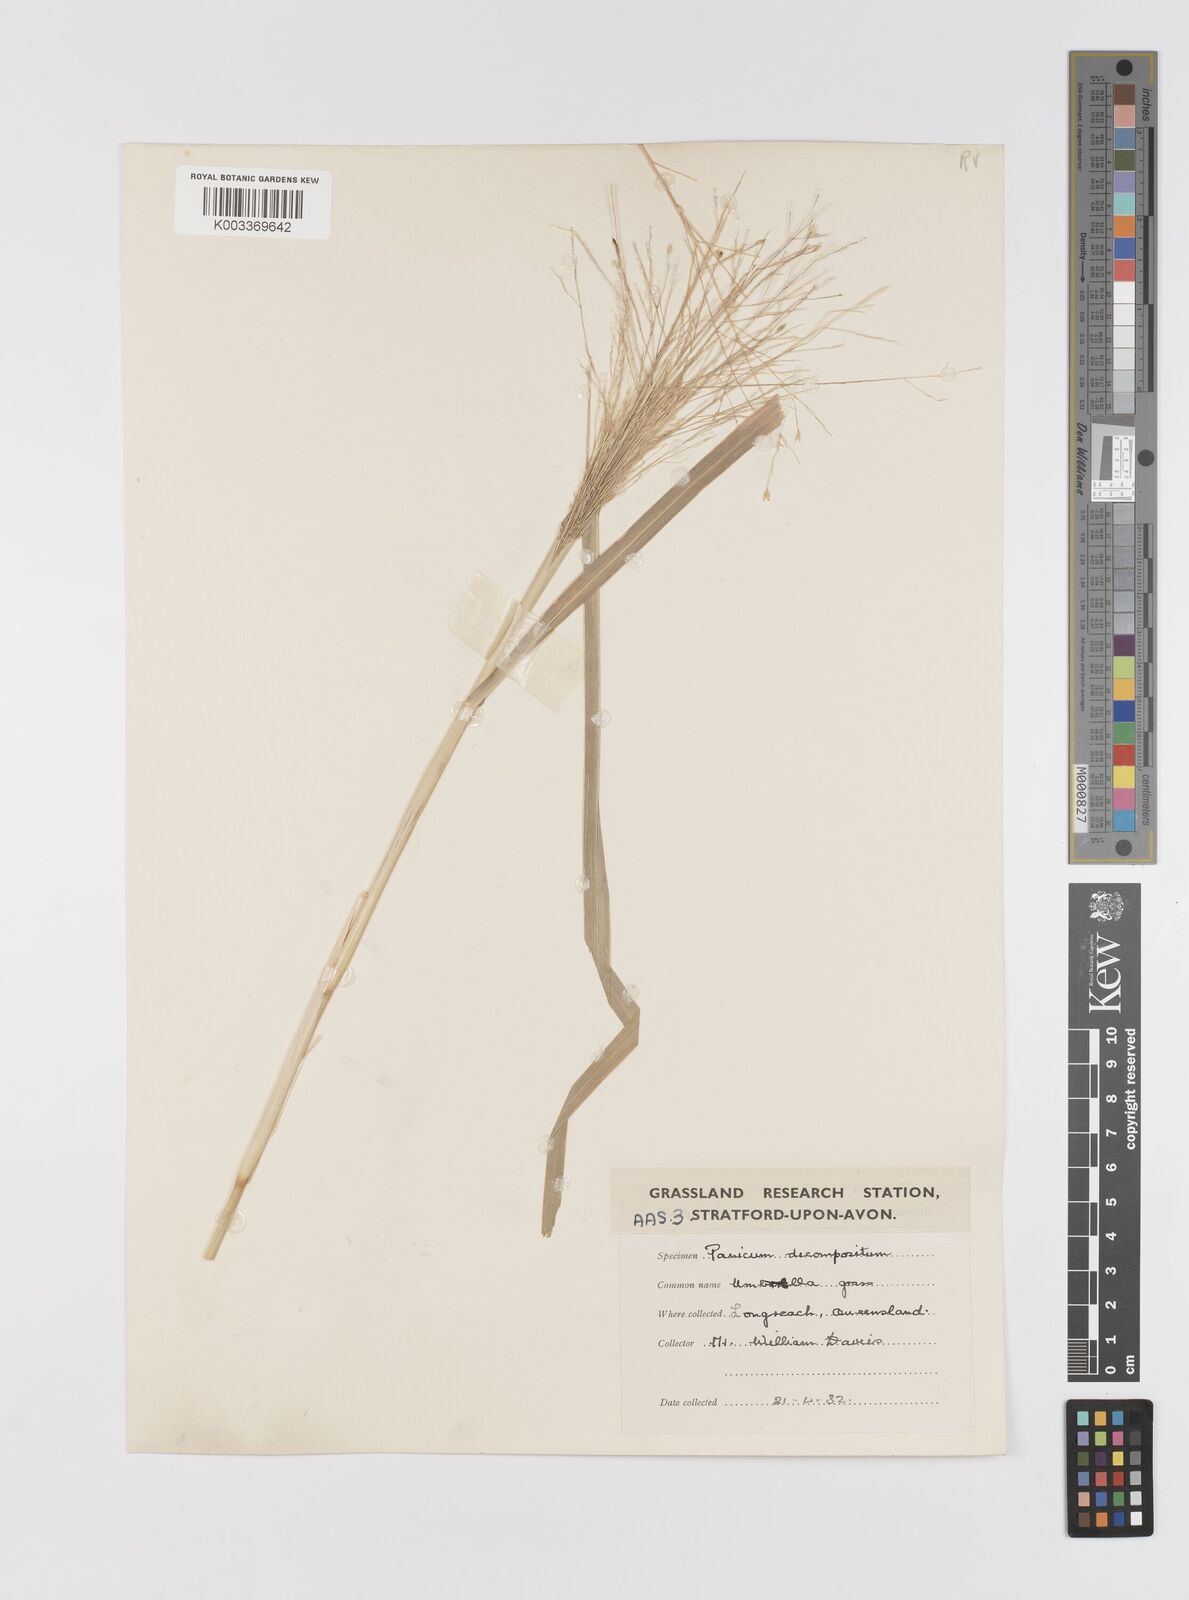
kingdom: Plantae
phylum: Tracheophyta
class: Liliopsida
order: Poales
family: Poaceae
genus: Panicum
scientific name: Panicum decompositum
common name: Australian millet
